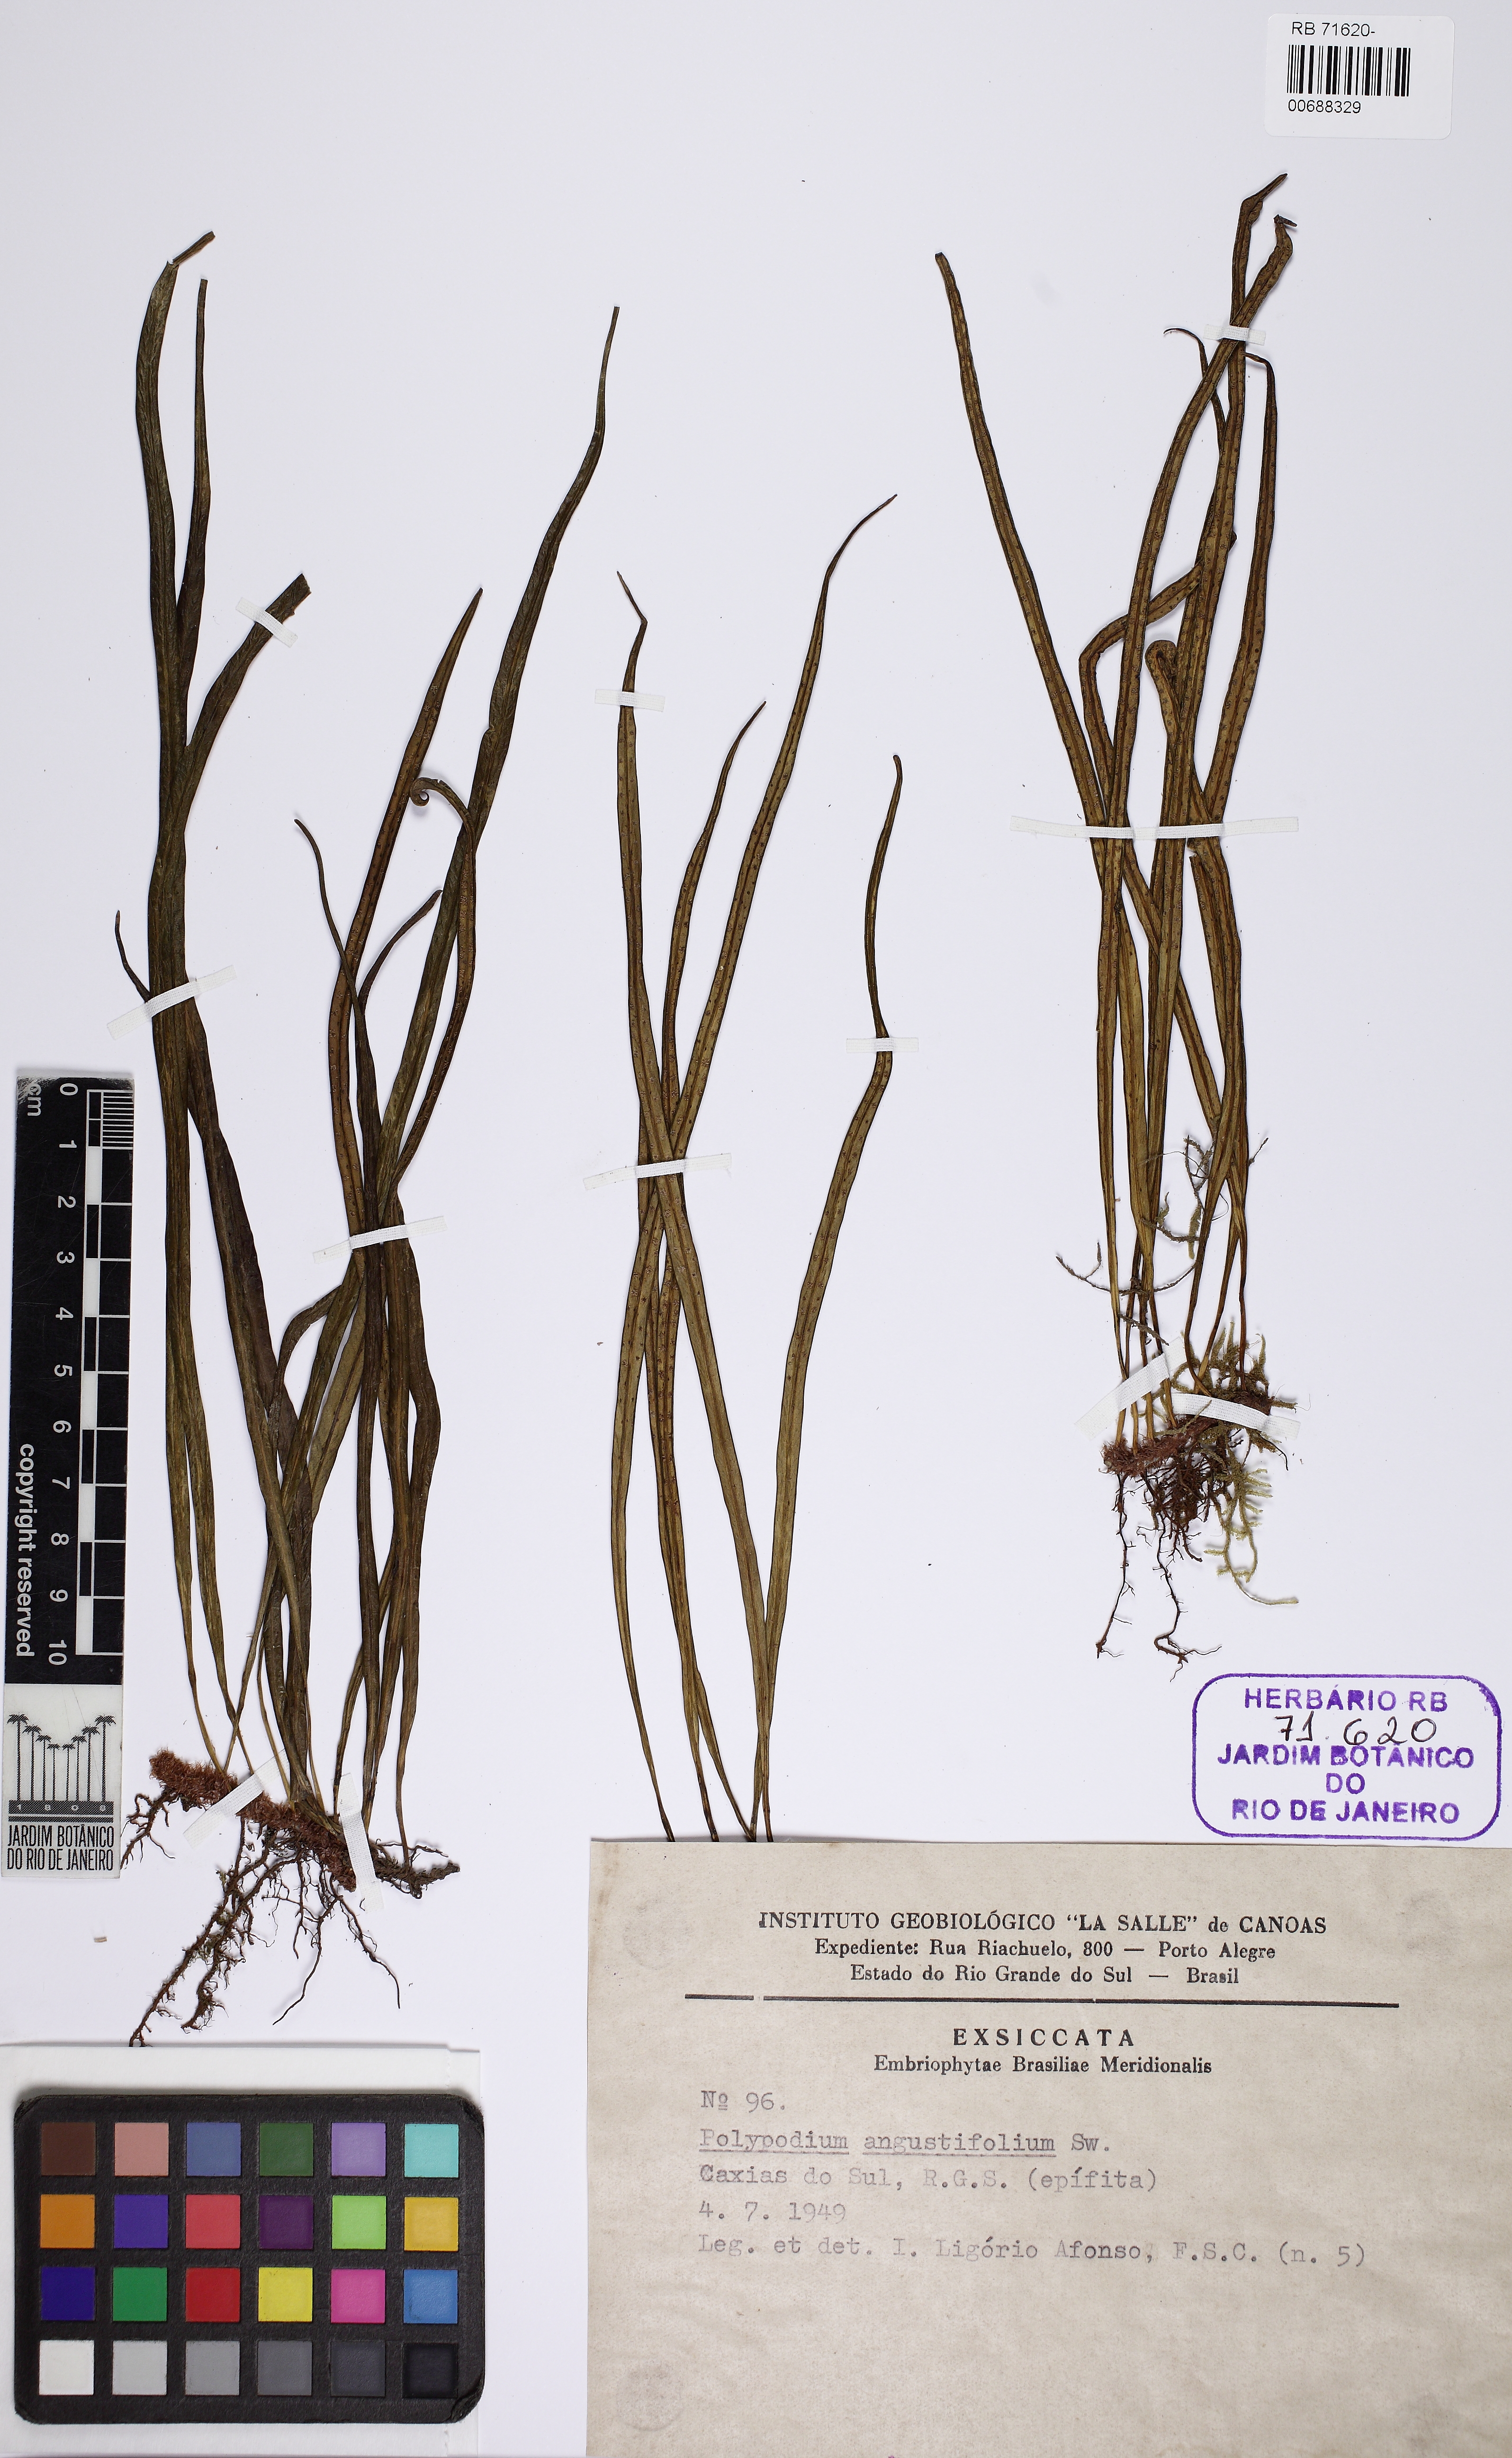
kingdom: Plantae
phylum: Tracheophyta
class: Polypodiopsida
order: Polypodiales
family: Polypodiaceae
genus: Campyloneurum
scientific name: Campyloneurum angustifolium
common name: Narrow-leaf strap fern
